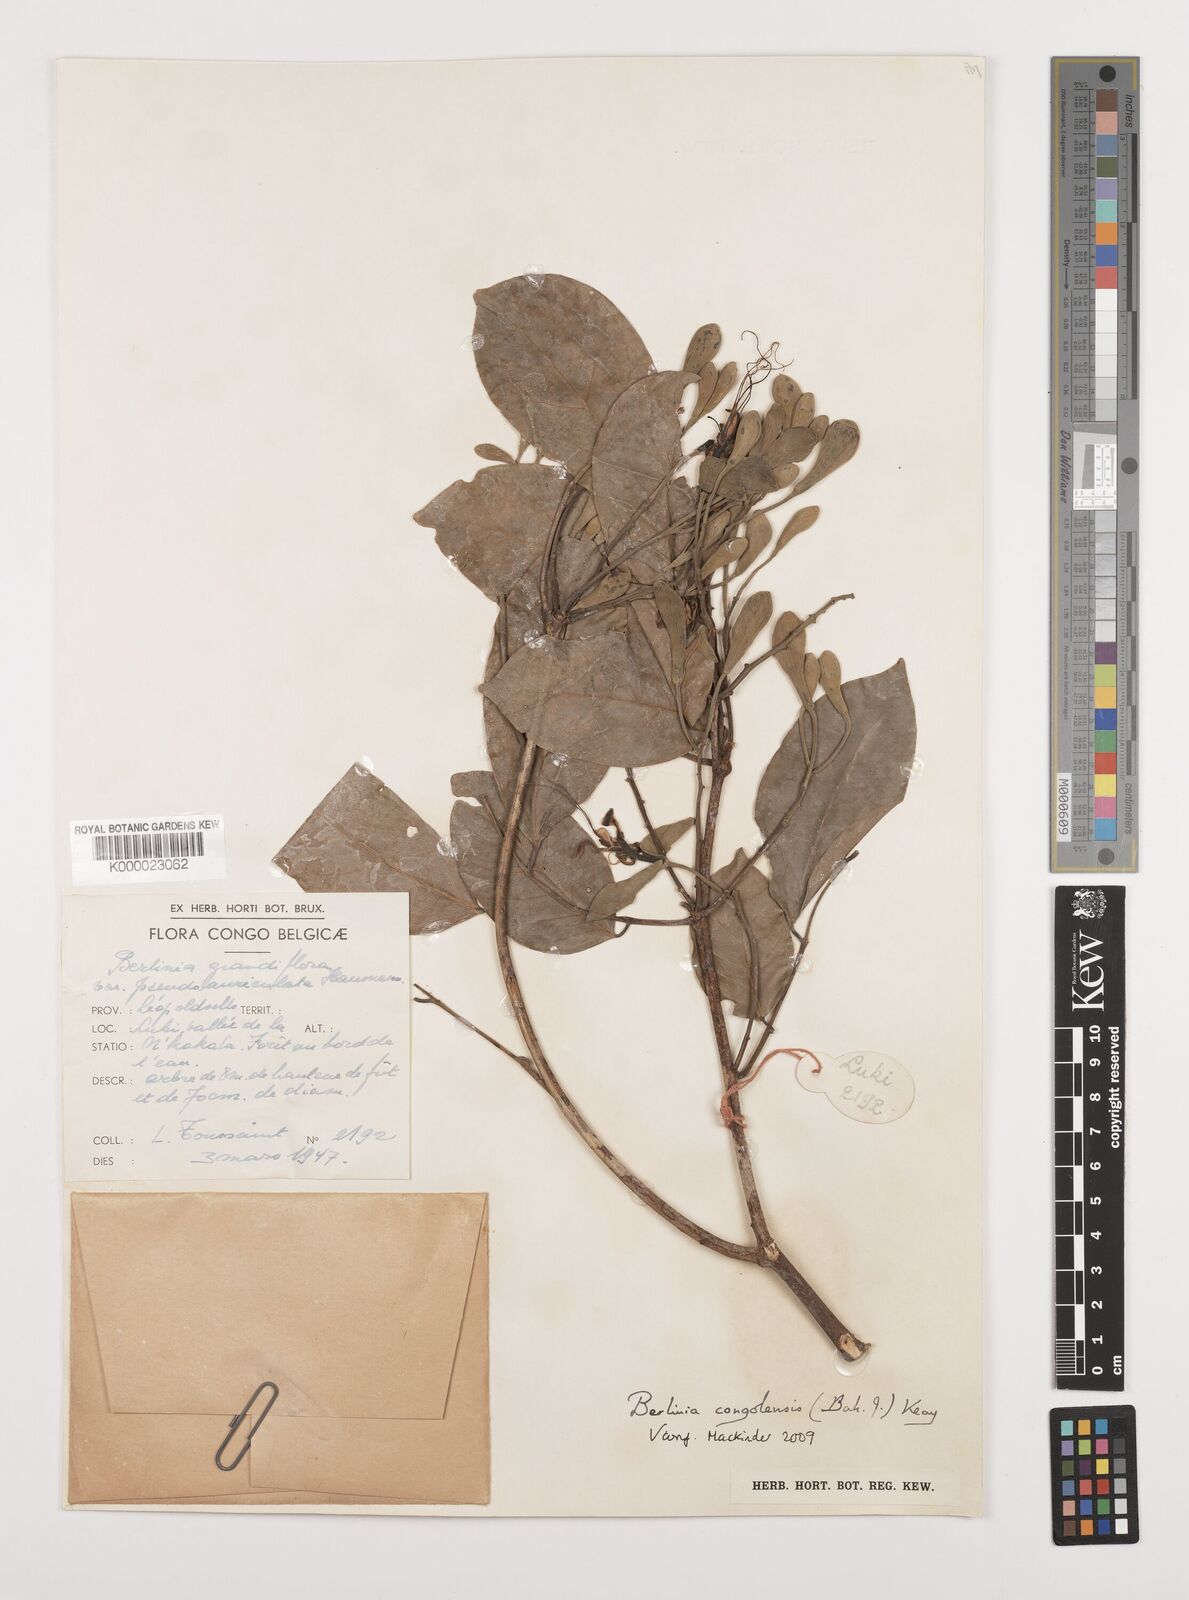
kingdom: Plantae
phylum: Tracheophyta
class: Magnoliopsida
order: Fabales
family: Fabaceae
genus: Berlinia
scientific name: Berlinia congolensis
